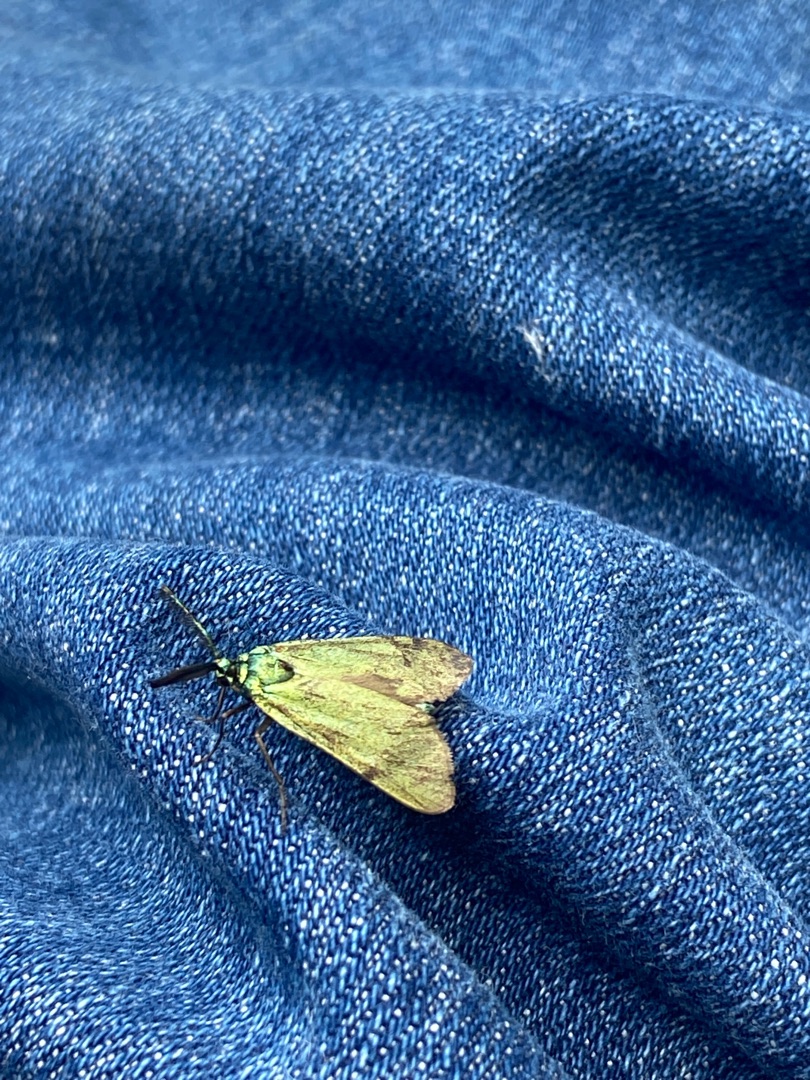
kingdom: Animalia
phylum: Arthropoda
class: Insecta
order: Lepidoptera
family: Zygaenidae
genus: Adscita
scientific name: Adscita statices
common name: Metalvinge
